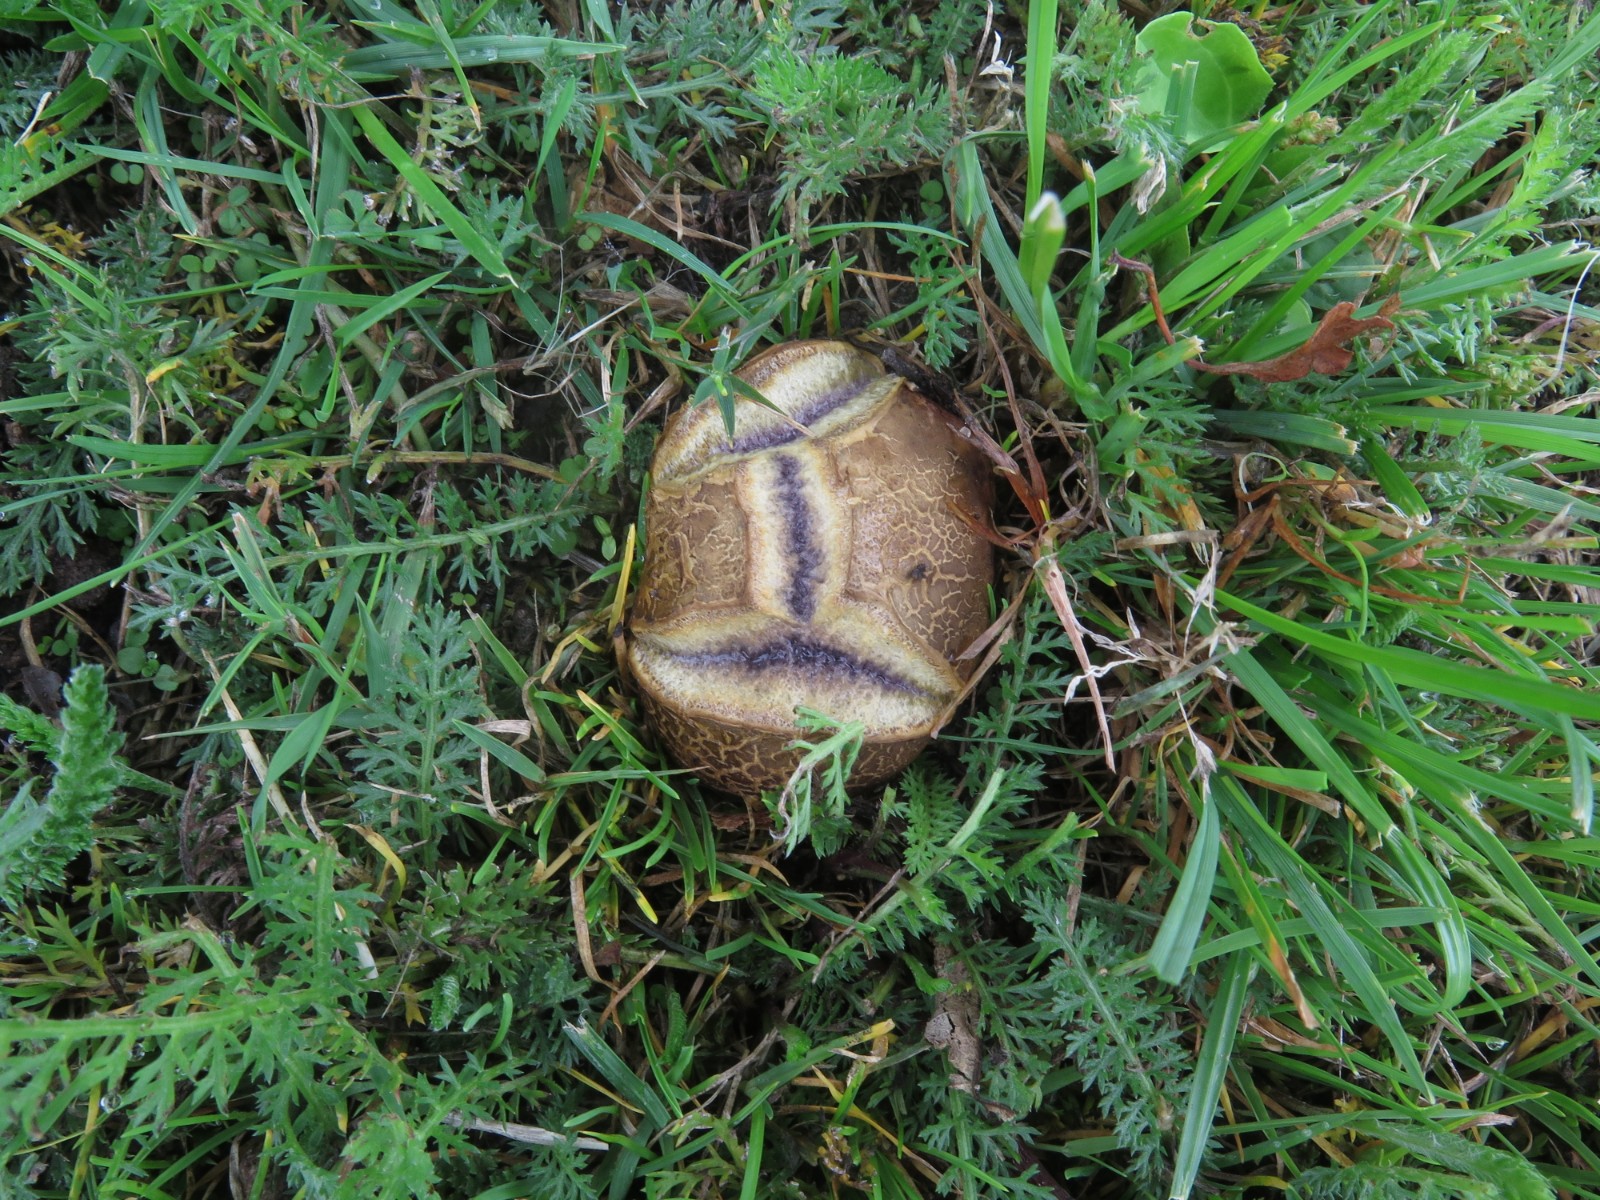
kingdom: Fungi
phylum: Basidiomycota
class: Agaricomycetes
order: Boletales
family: Sclerodermataceae
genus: Scleroderma
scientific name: Scleroderma citrinum
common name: almindelig bruskbold
